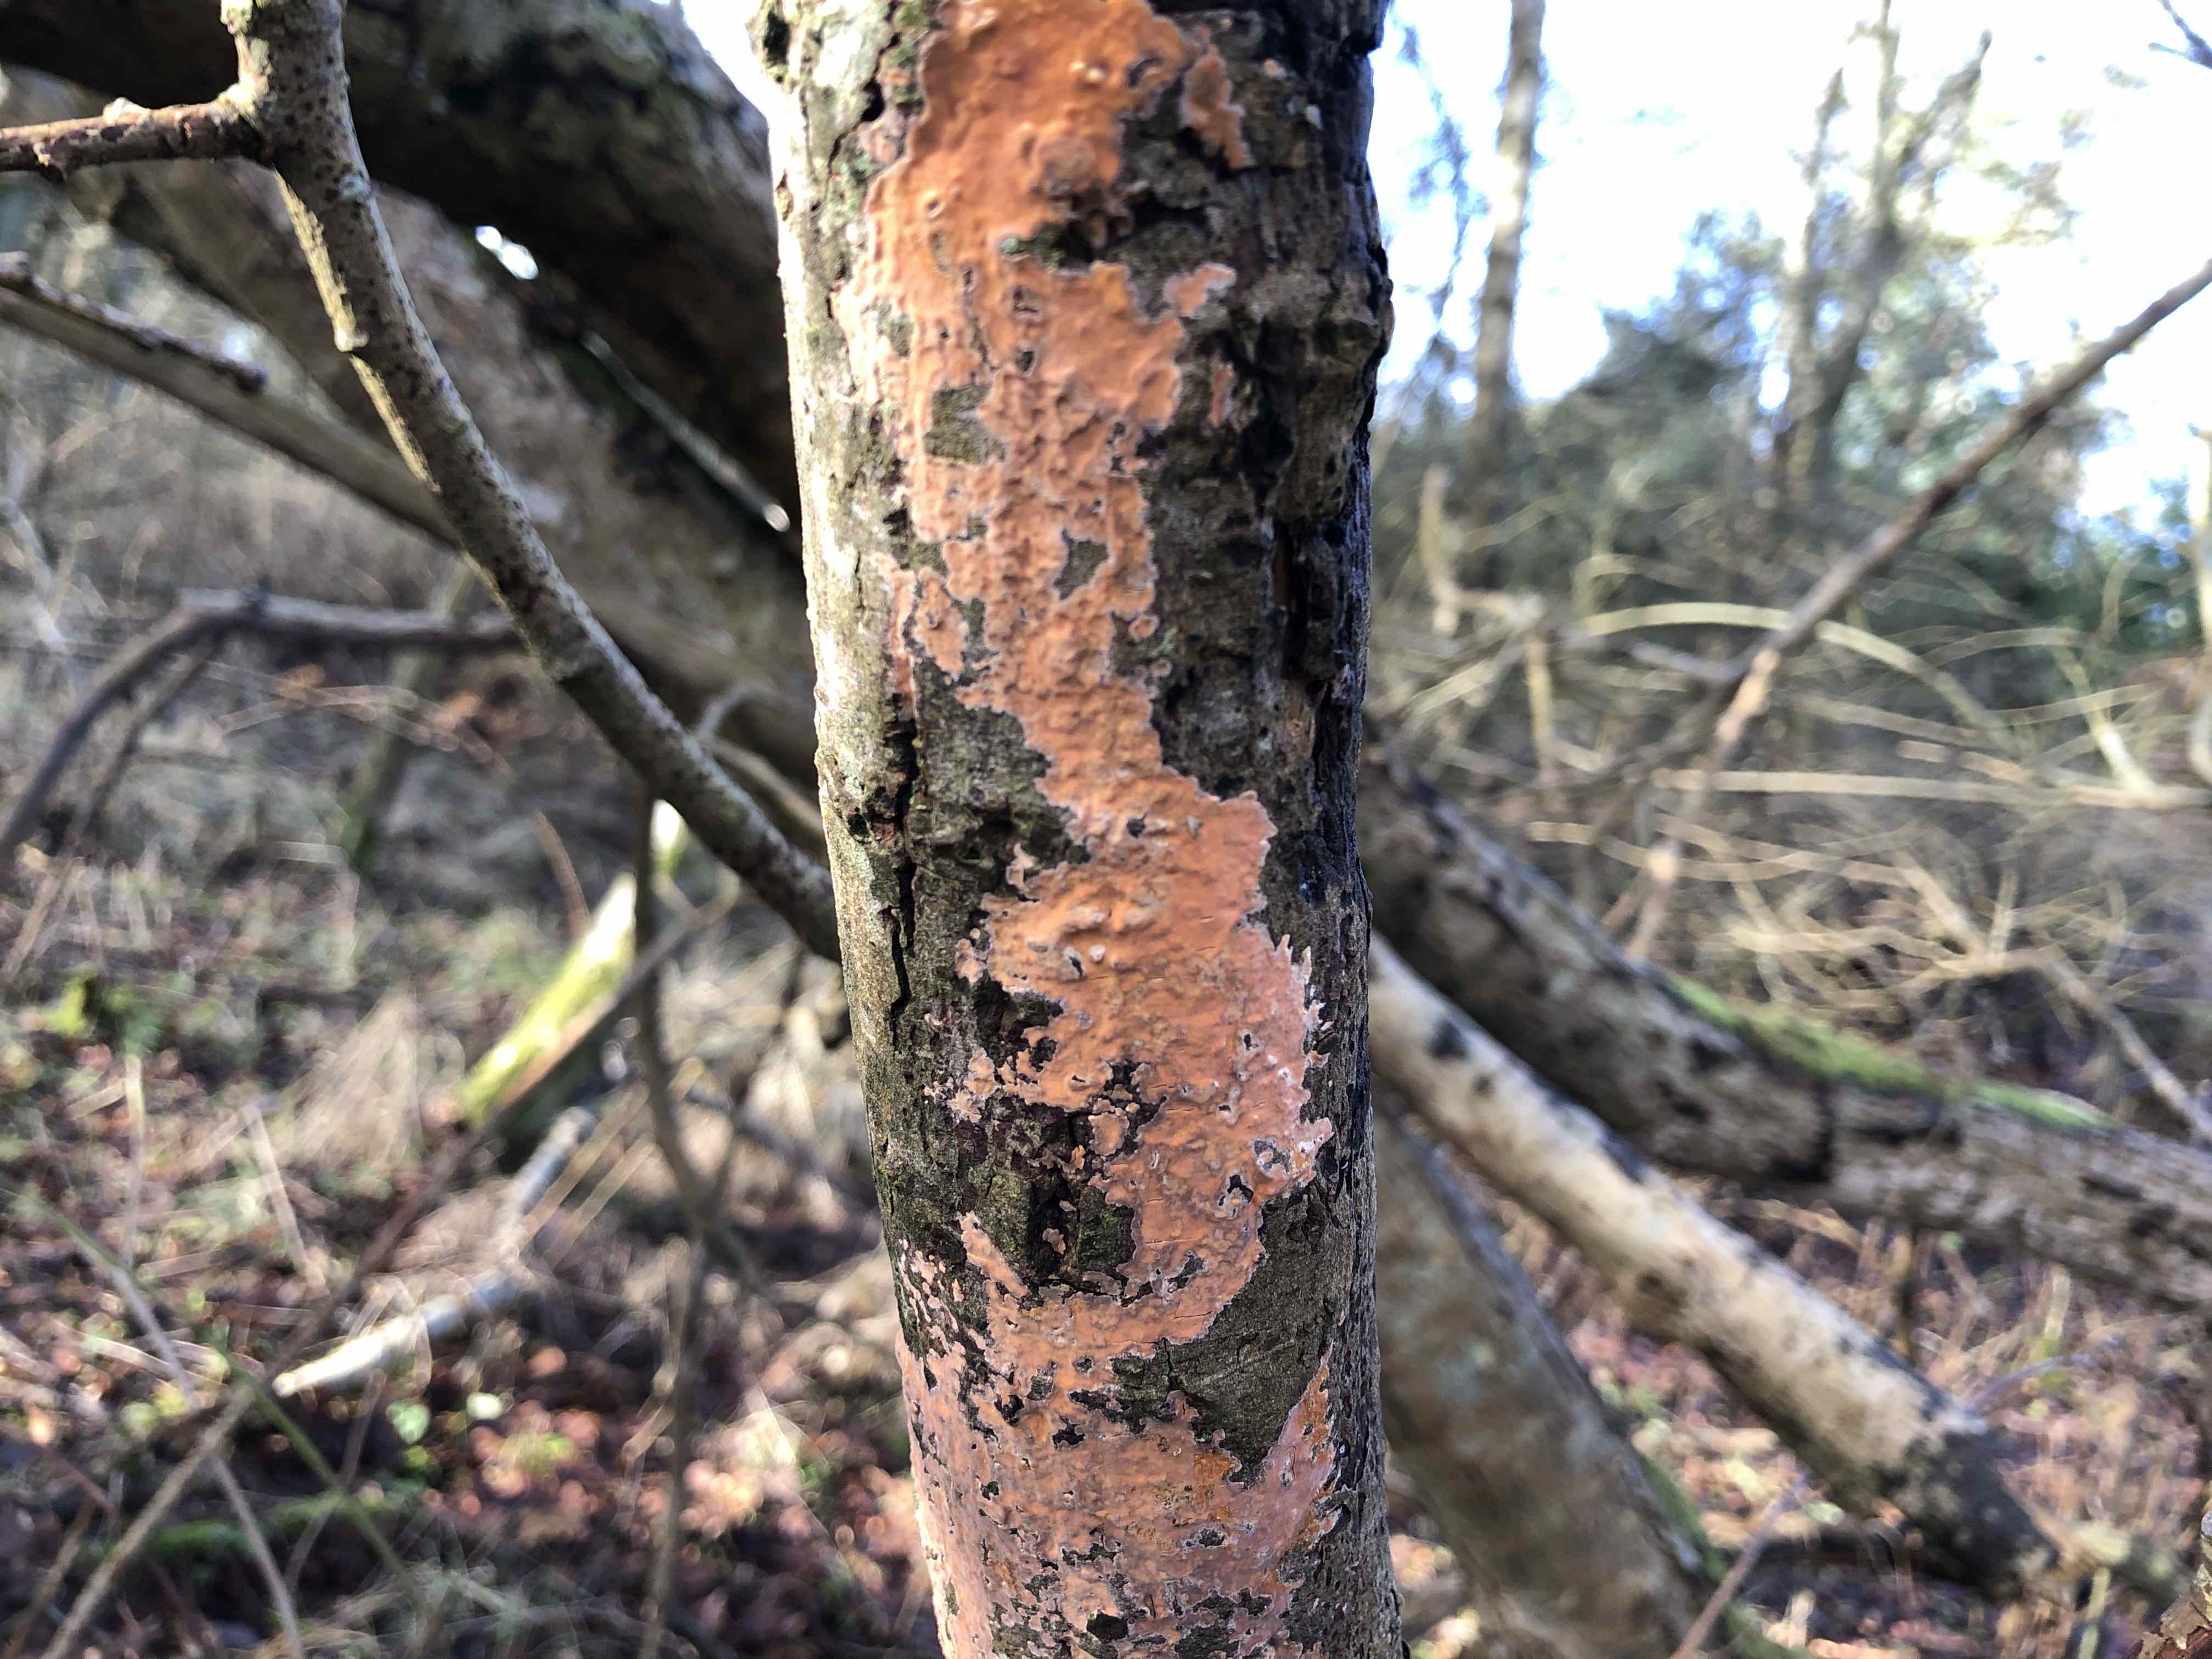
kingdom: Fungi
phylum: Basidiomycota
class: Agaricomycetes
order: Russulales
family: Peniophoraceae
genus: Peniophora
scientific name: Peniophora incarnata
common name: laksefarvet voksskind
